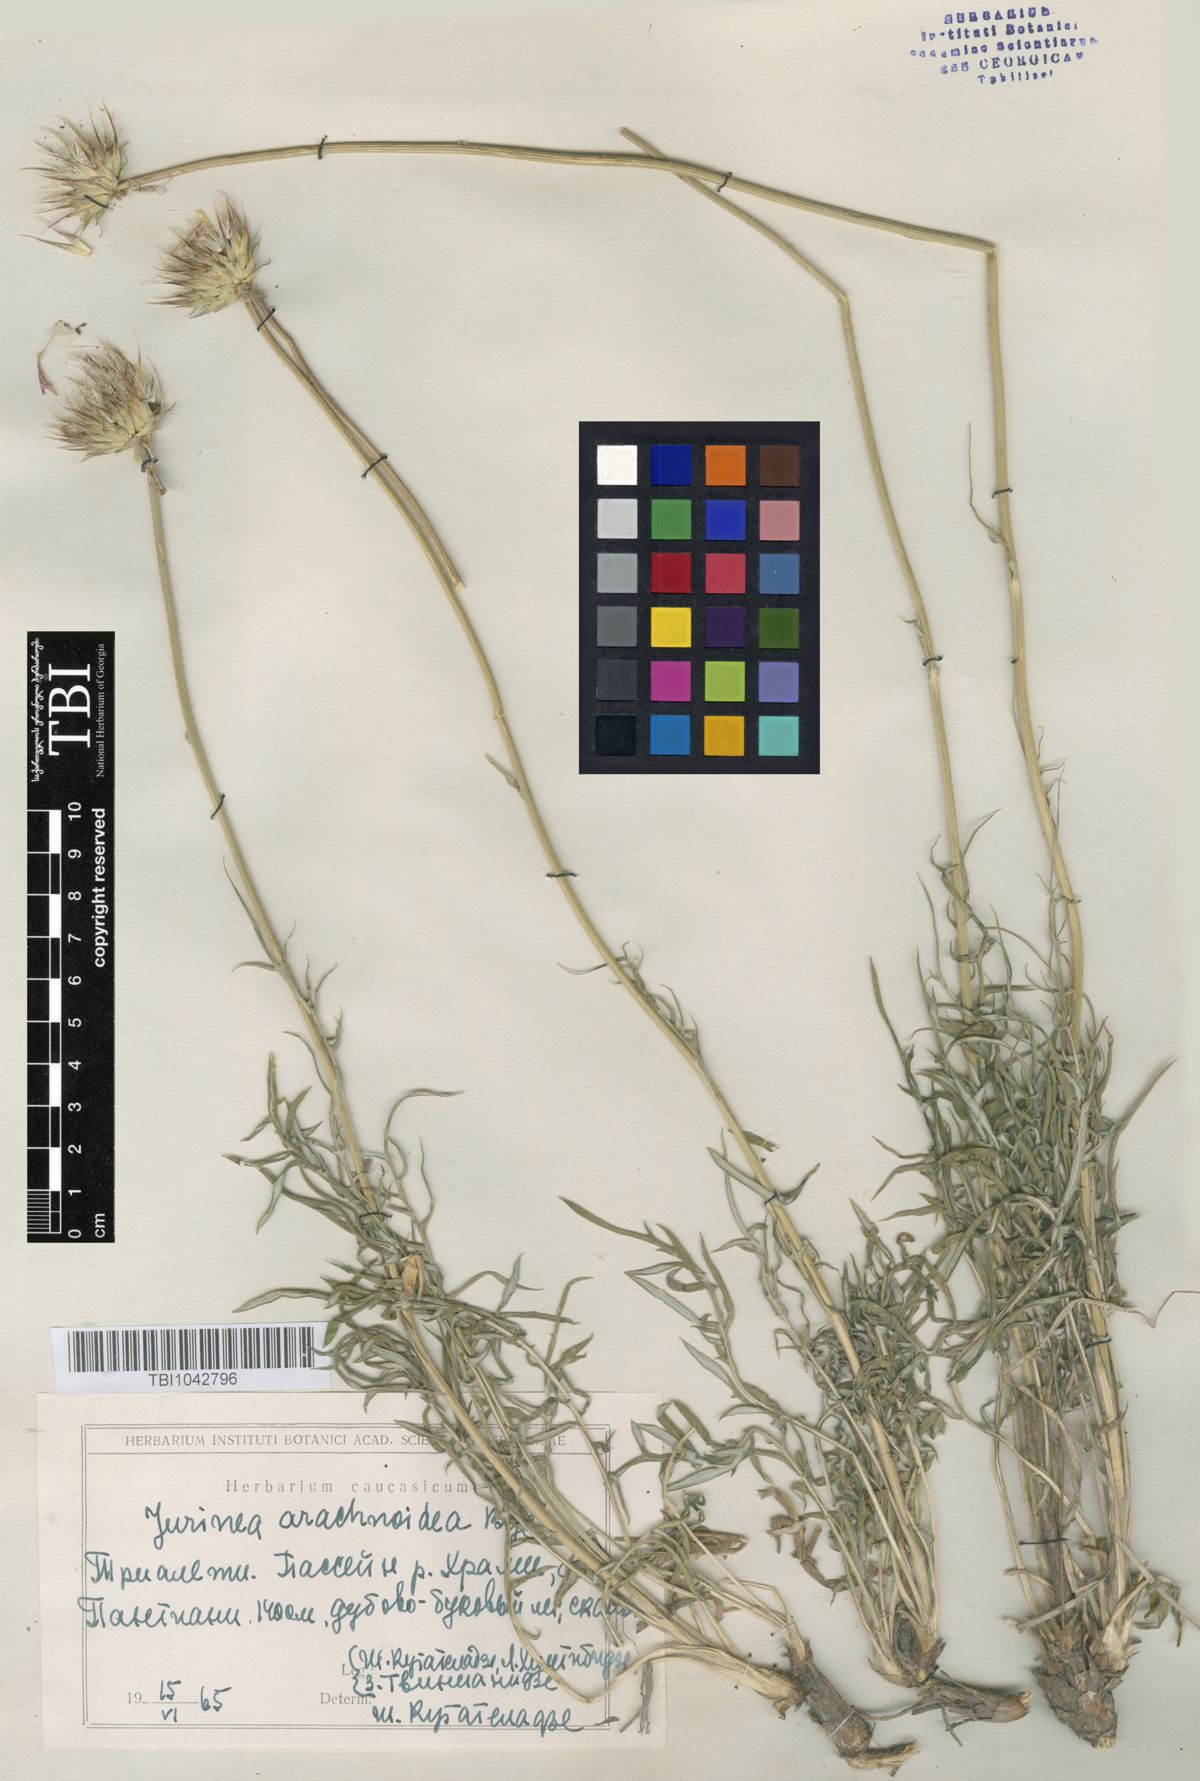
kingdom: Plantae
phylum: Tracheophyta
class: Magnoliopsida
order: Asterales
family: Asteraceae
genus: Jurinea
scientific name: Jurinea blanda
